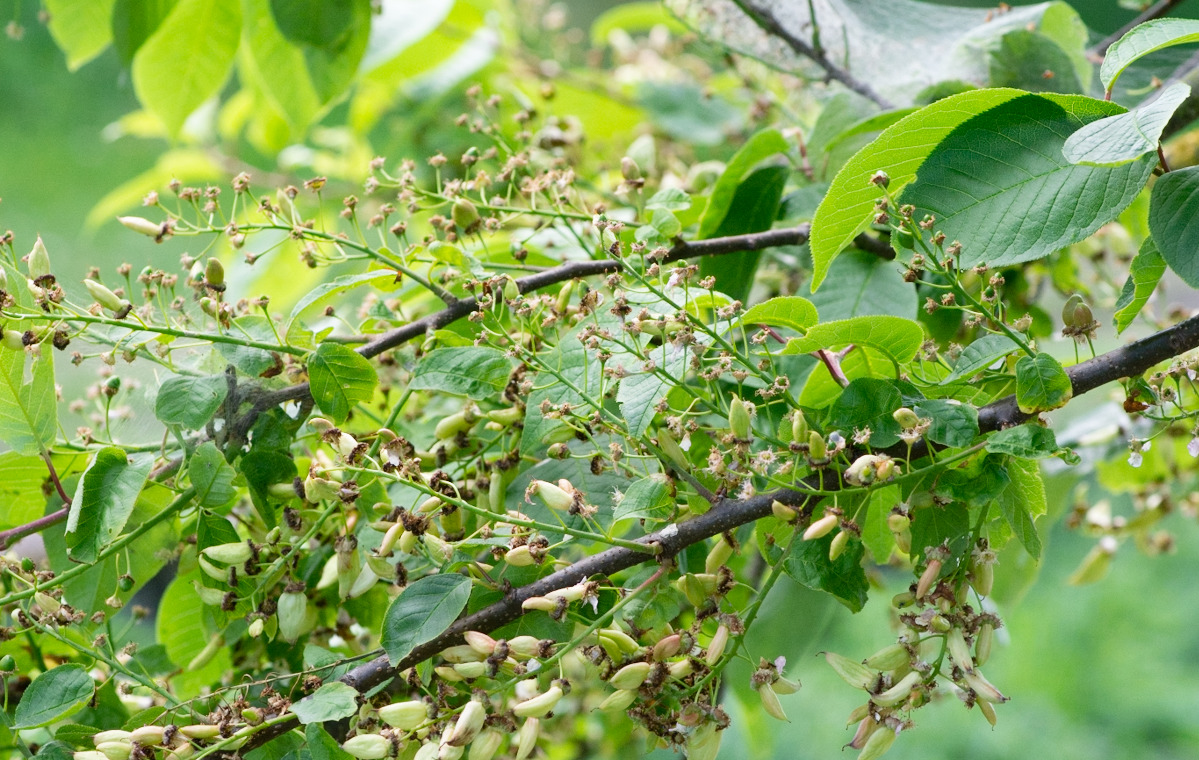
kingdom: Plantae
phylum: Tracheophyta
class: Magnoliopsida
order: Rosales
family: Rosaceae
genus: Prunus
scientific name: Prunus padus
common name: Almindelig hæg
